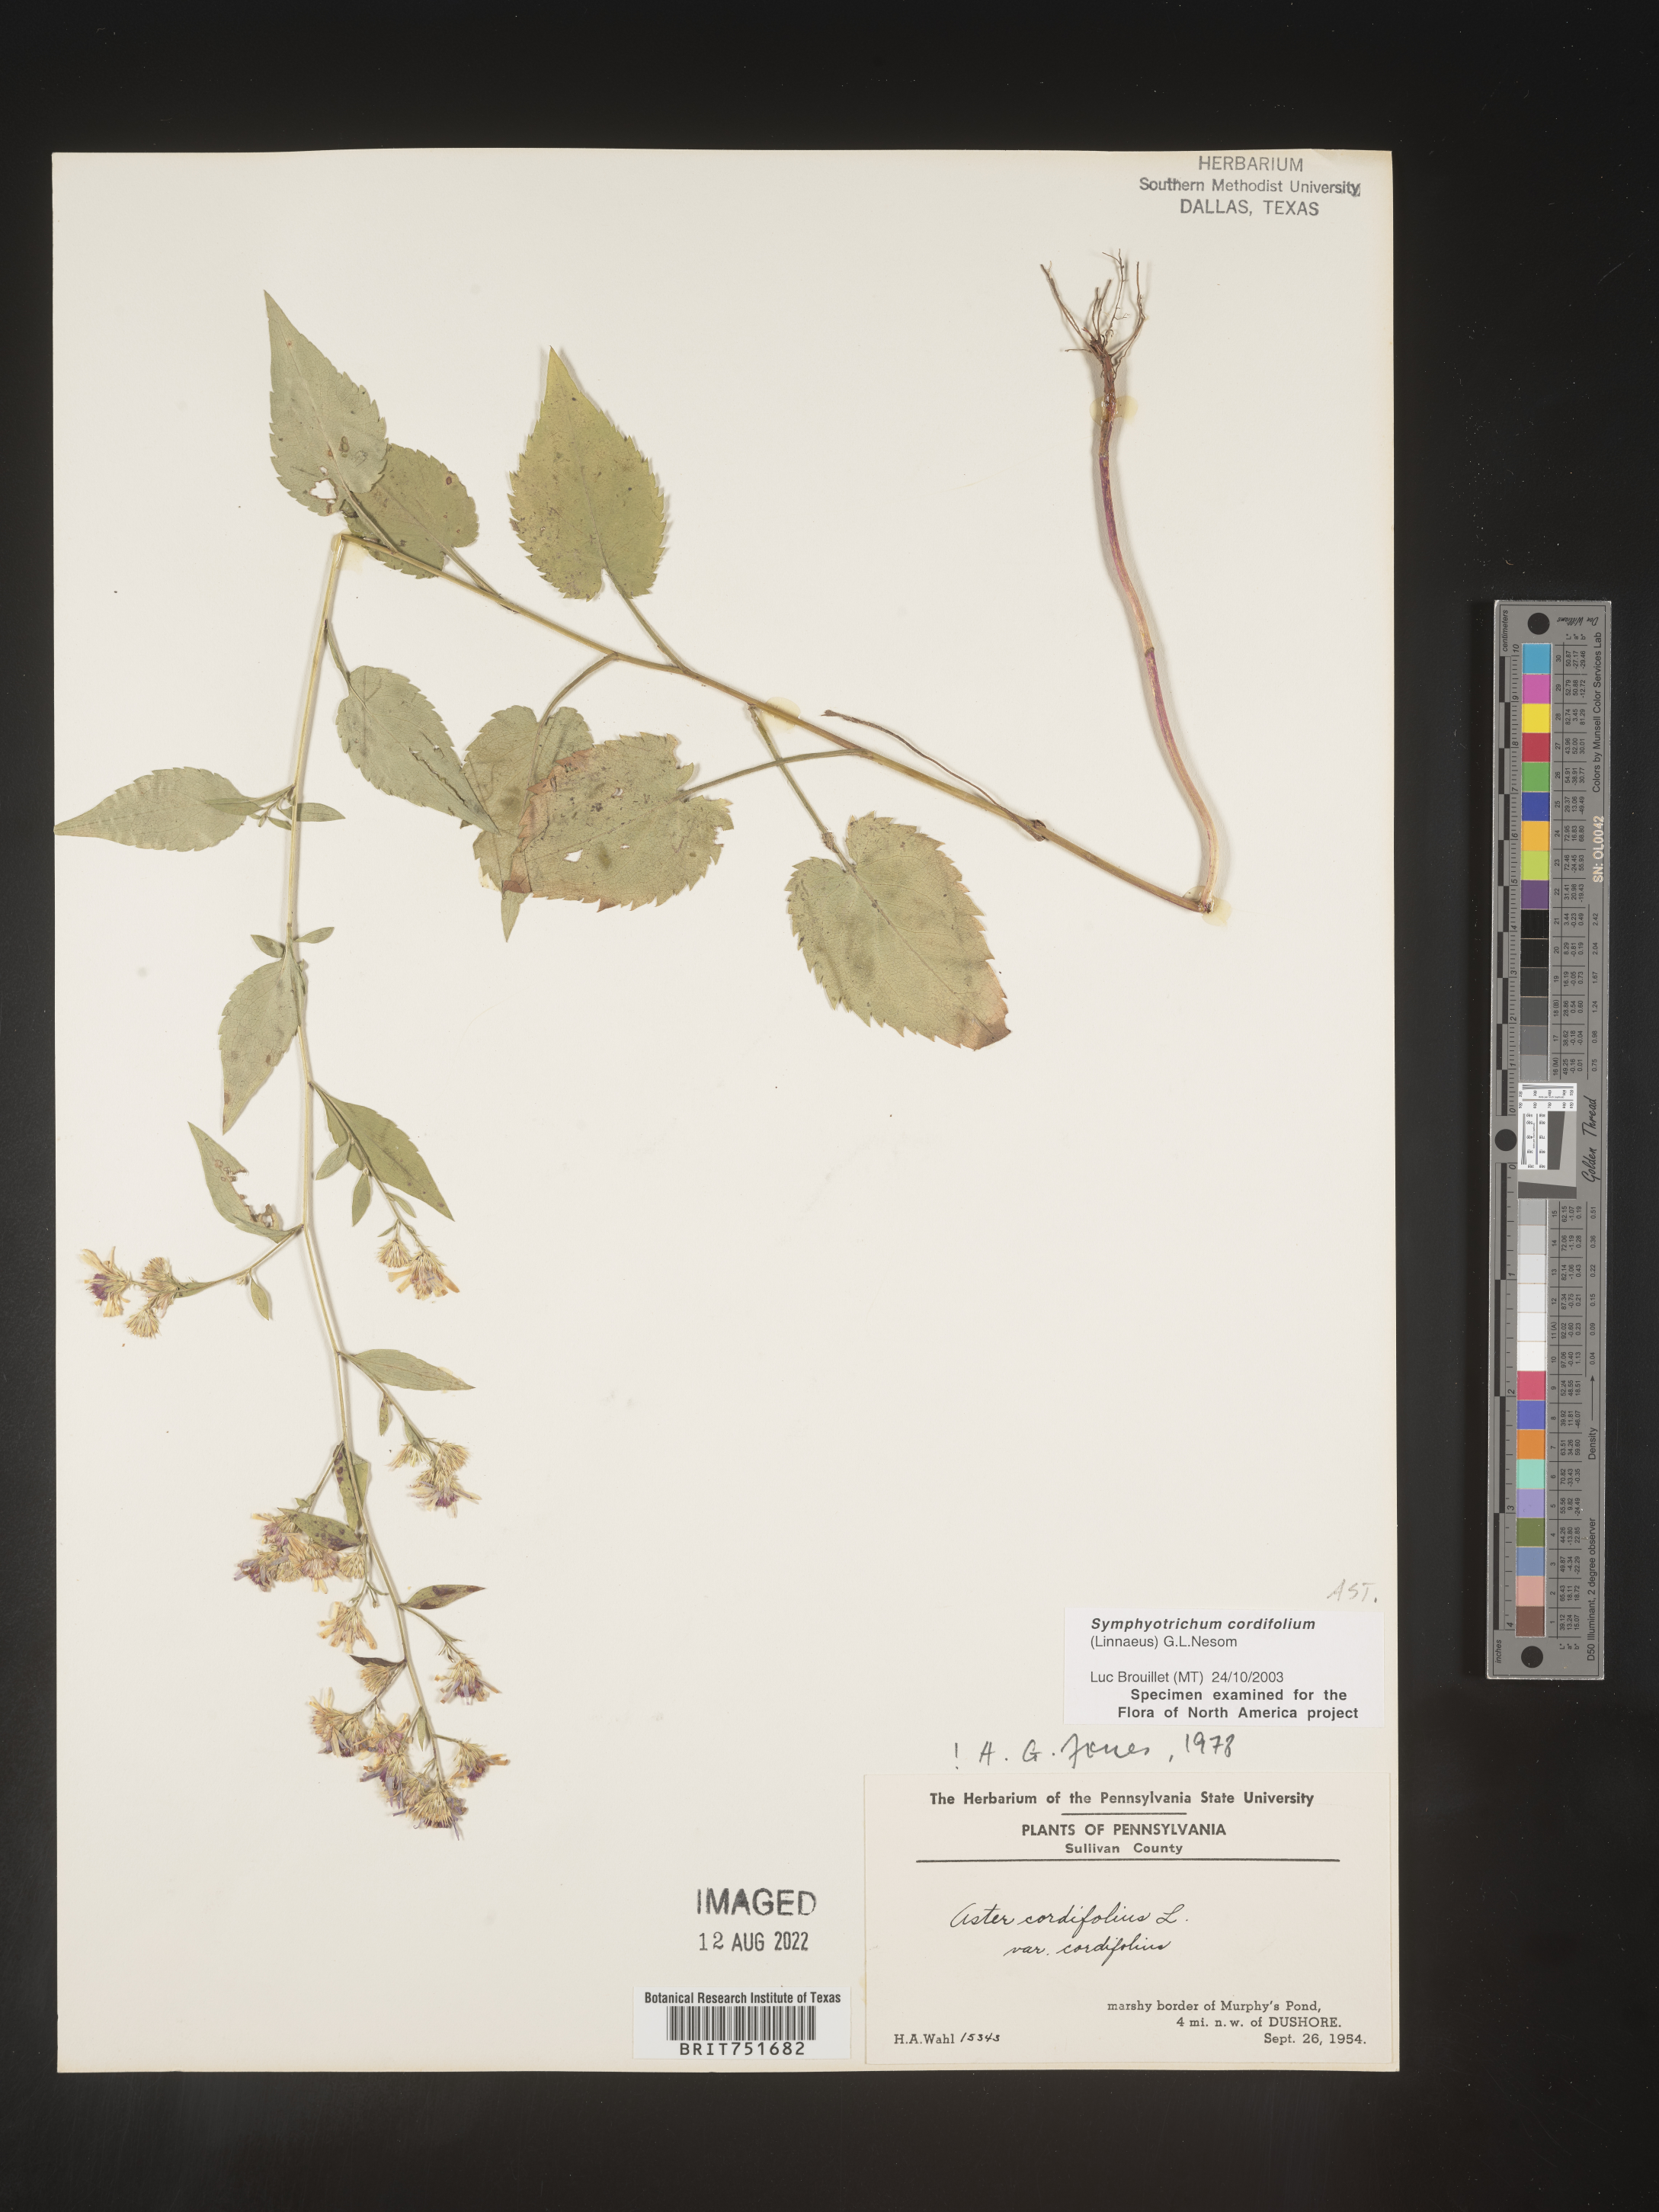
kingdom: Plantae
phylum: Tracheophyta
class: Magnoliopsida
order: Asterales
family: Asteraceae
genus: Symphyotrichum
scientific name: Symphyotrichum cordifolium
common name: Beeweed
